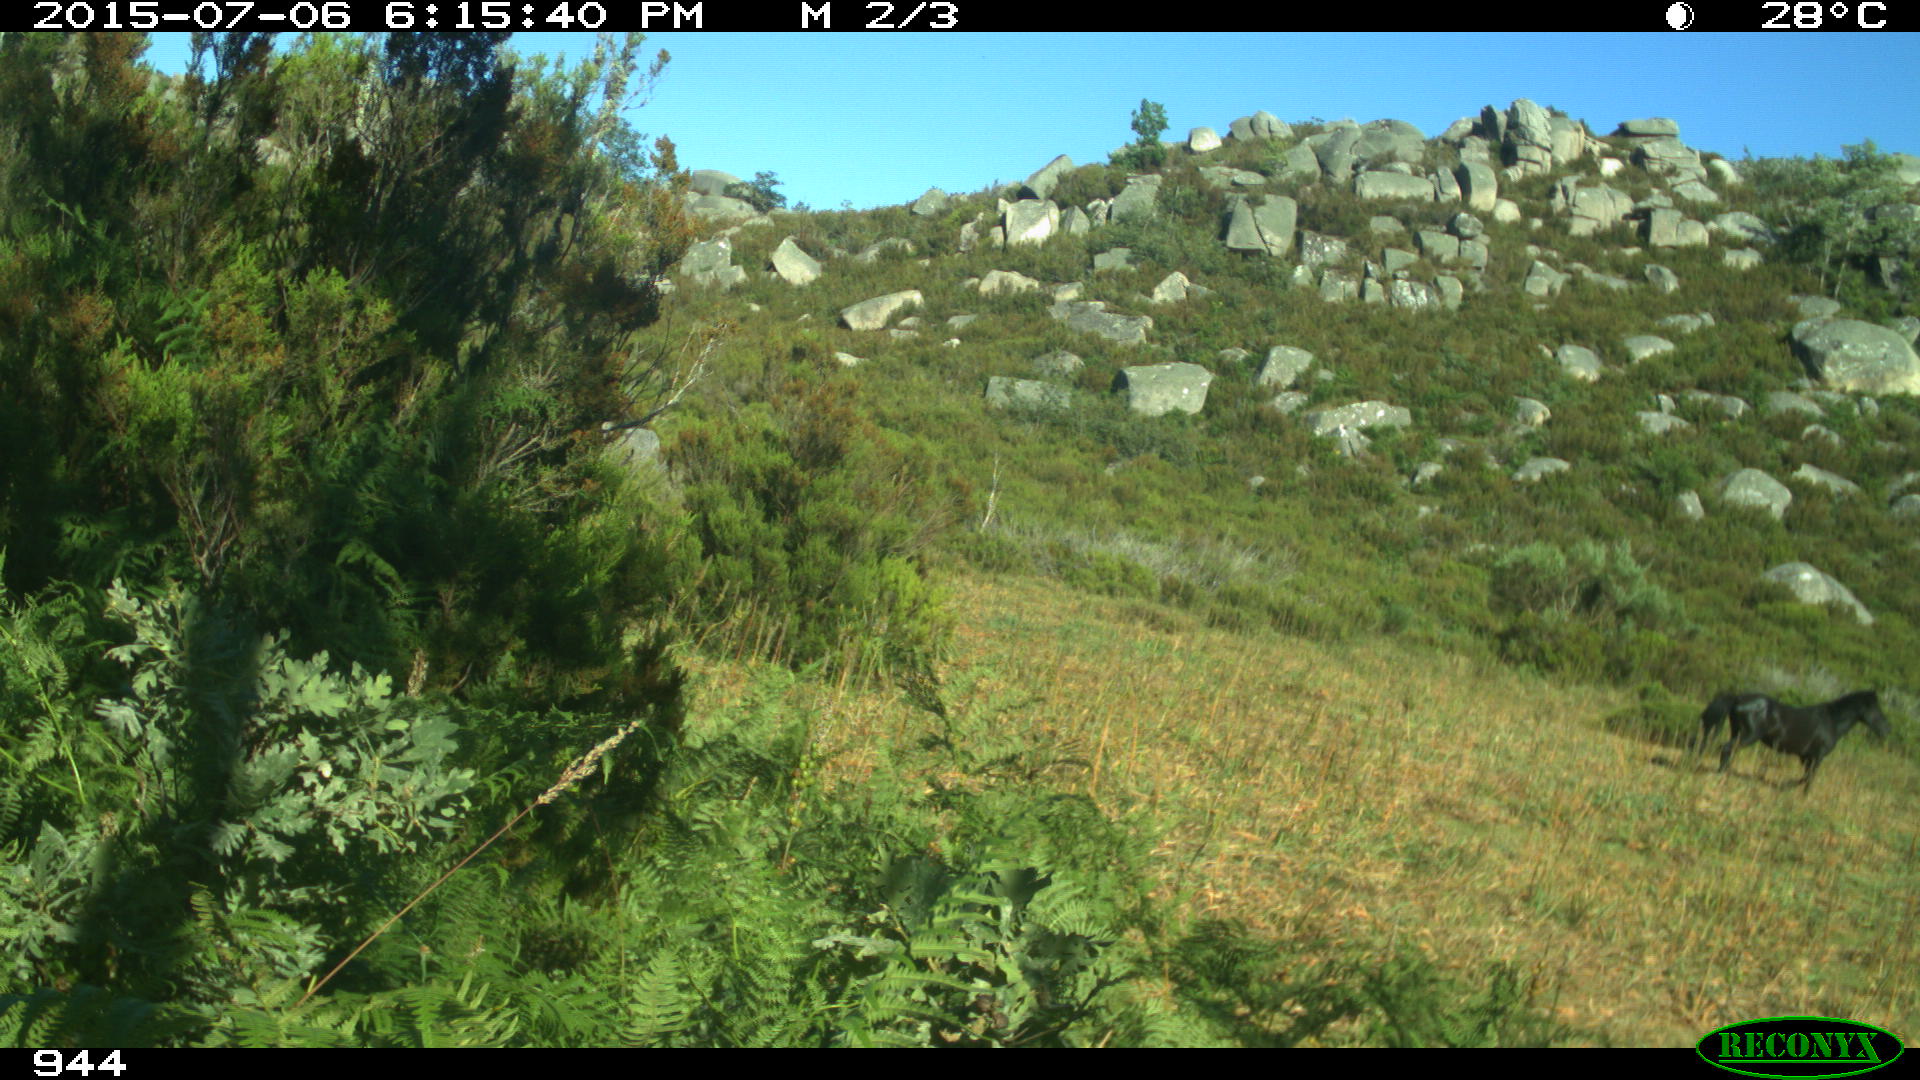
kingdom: Animalia
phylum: Chordata
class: Mammalia
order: Perissodactyla
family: Equidae
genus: Equus
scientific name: Equus caballus
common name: Horse
